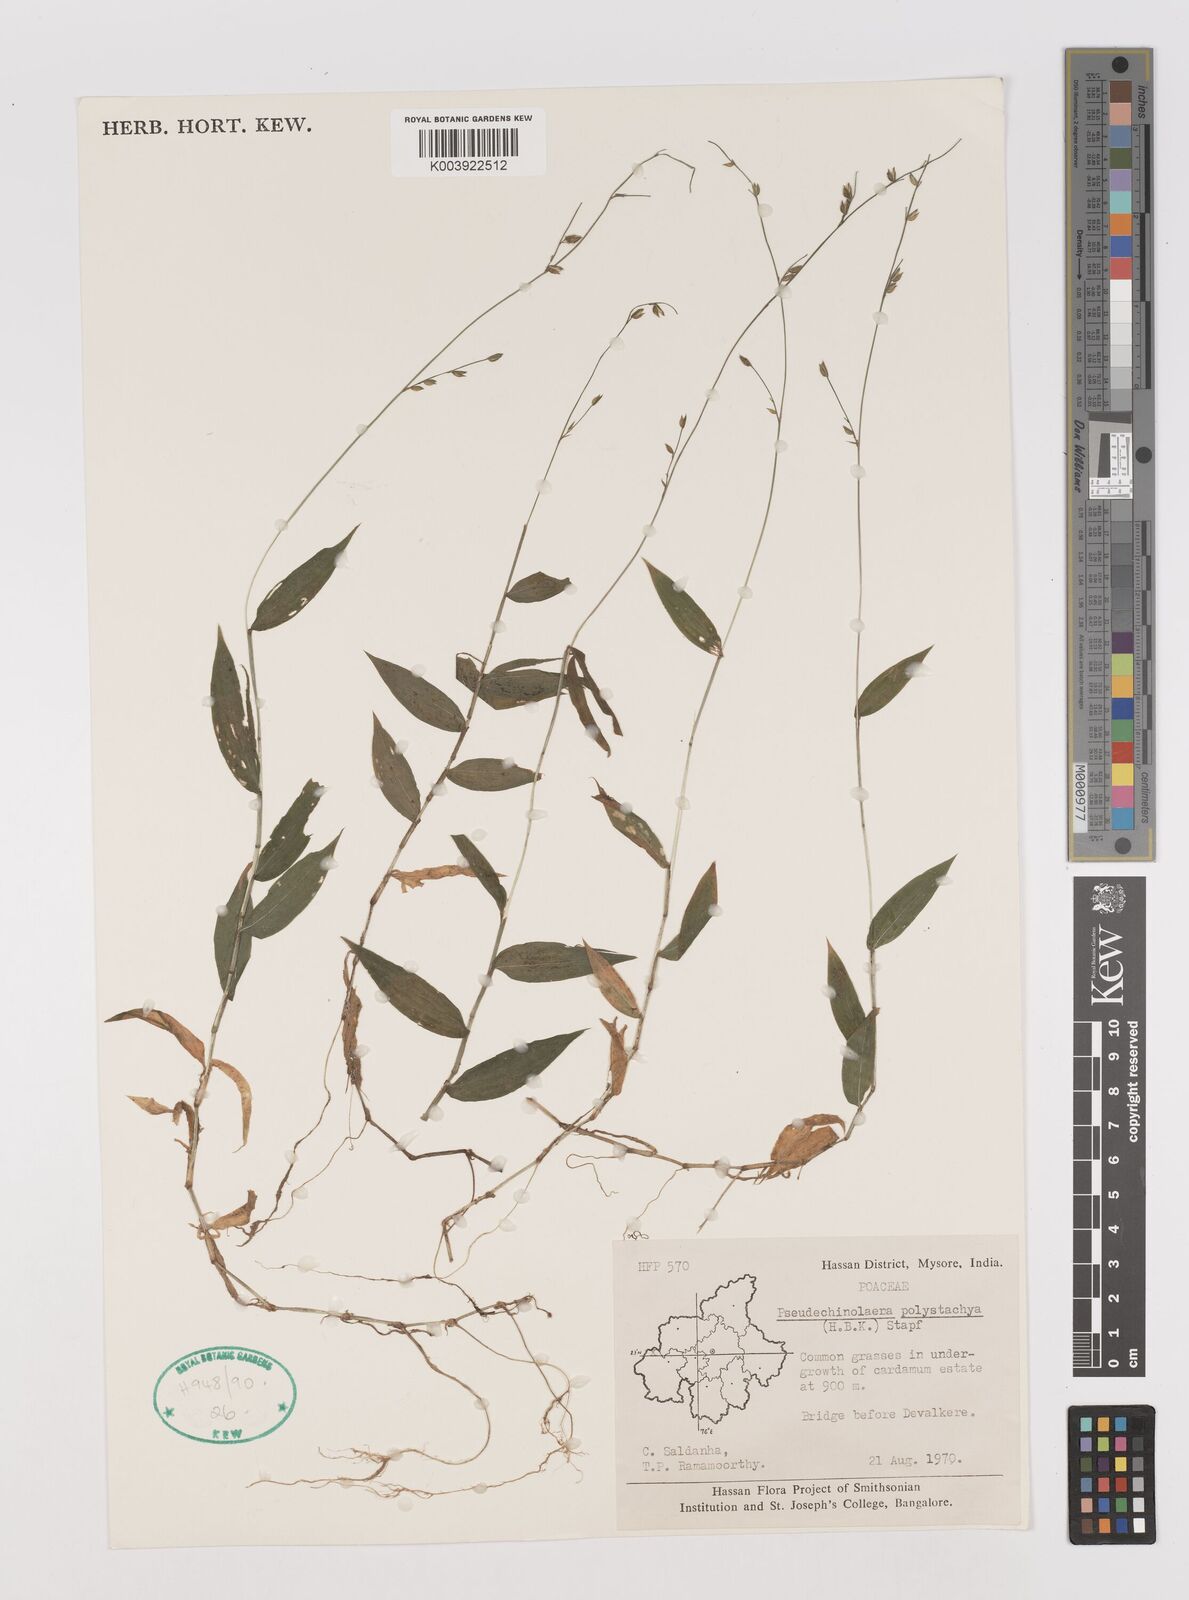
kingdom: Plantae
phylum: Tracheophyta
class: Liliopsida
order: Poales
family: Poaceae
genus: Pseudechinolaena
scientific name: Pseudechinolaena polystachya
